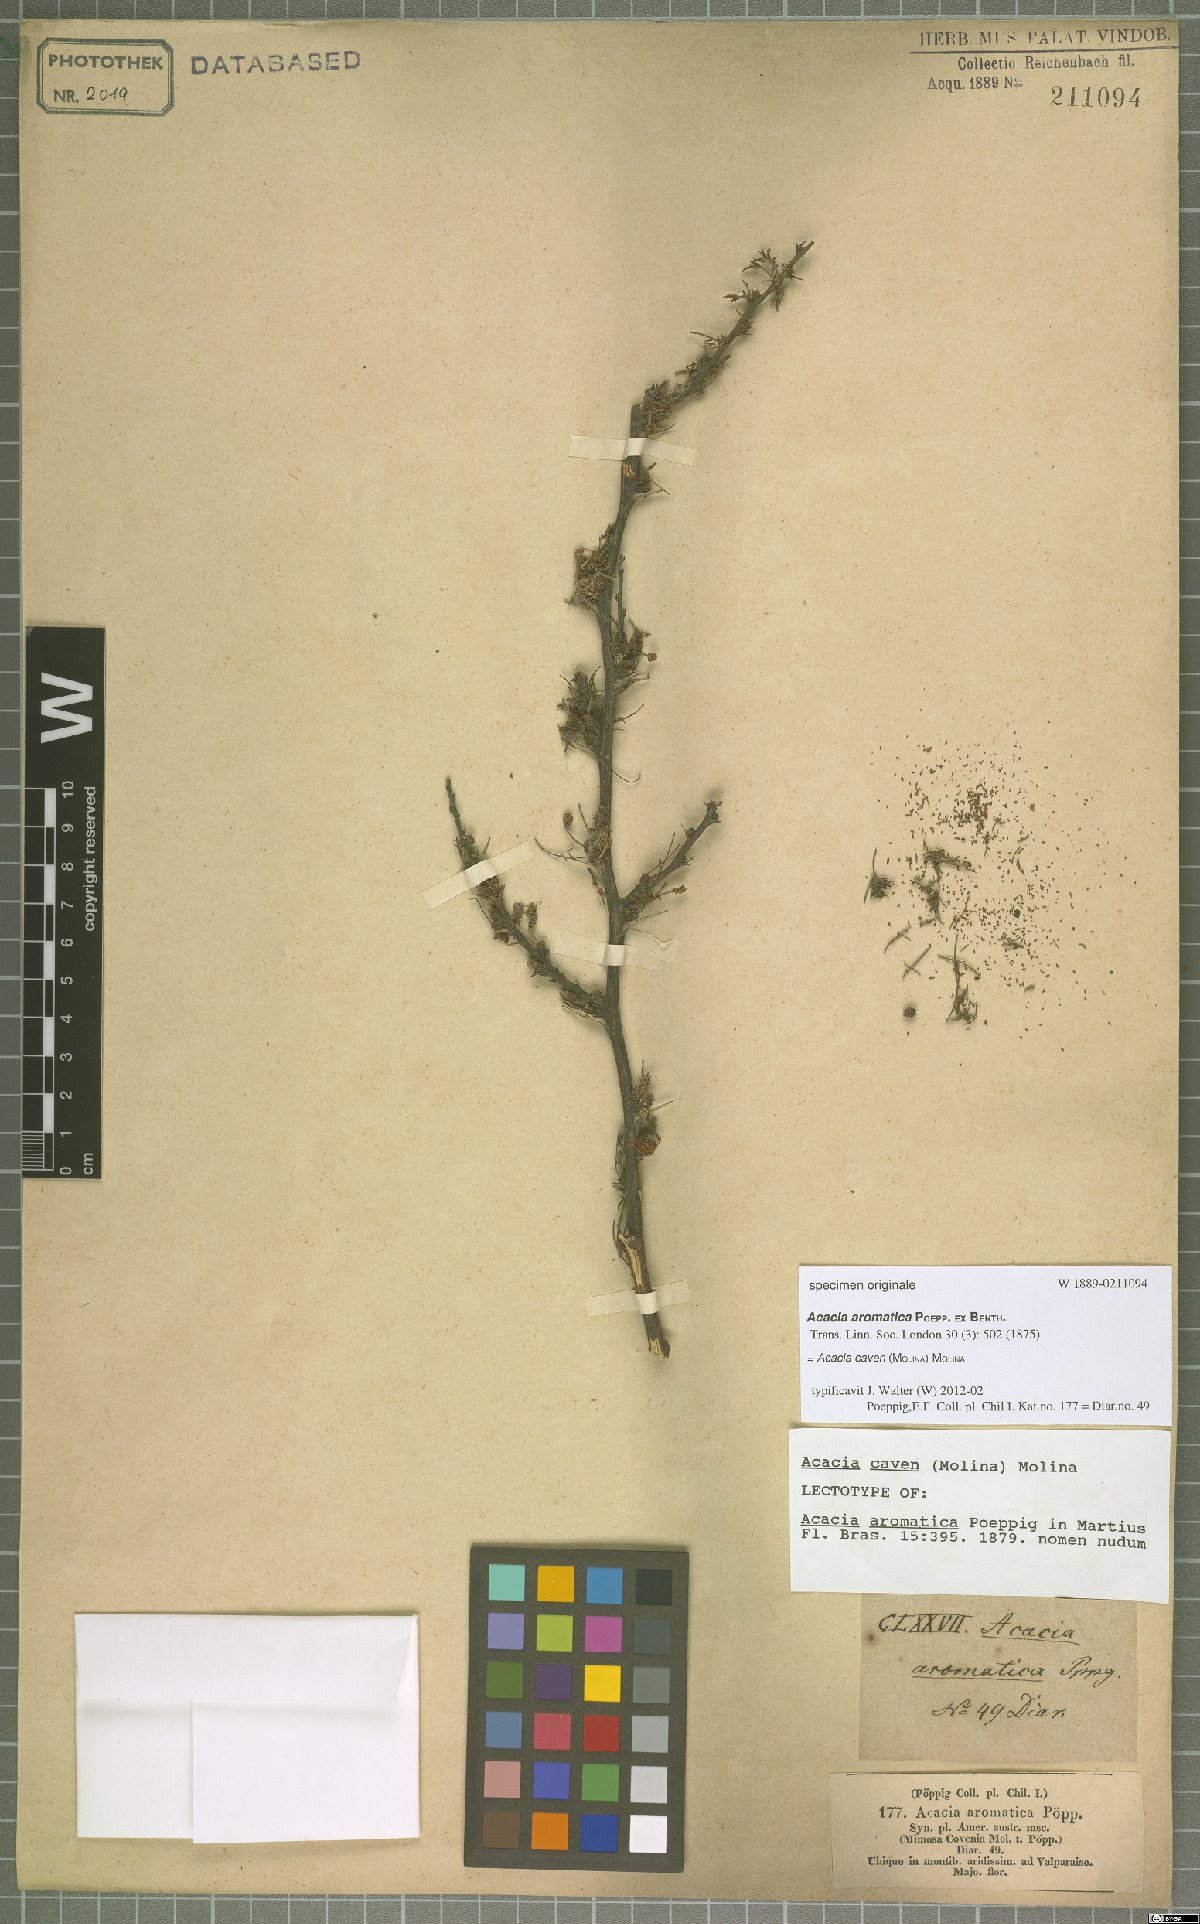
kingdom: Plantae
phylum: Tracheophyta
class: Magnoliopsida
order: Fabales
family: Fabaceae
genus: Vachellia
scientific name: Vachellia caven
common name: Roman cassie
